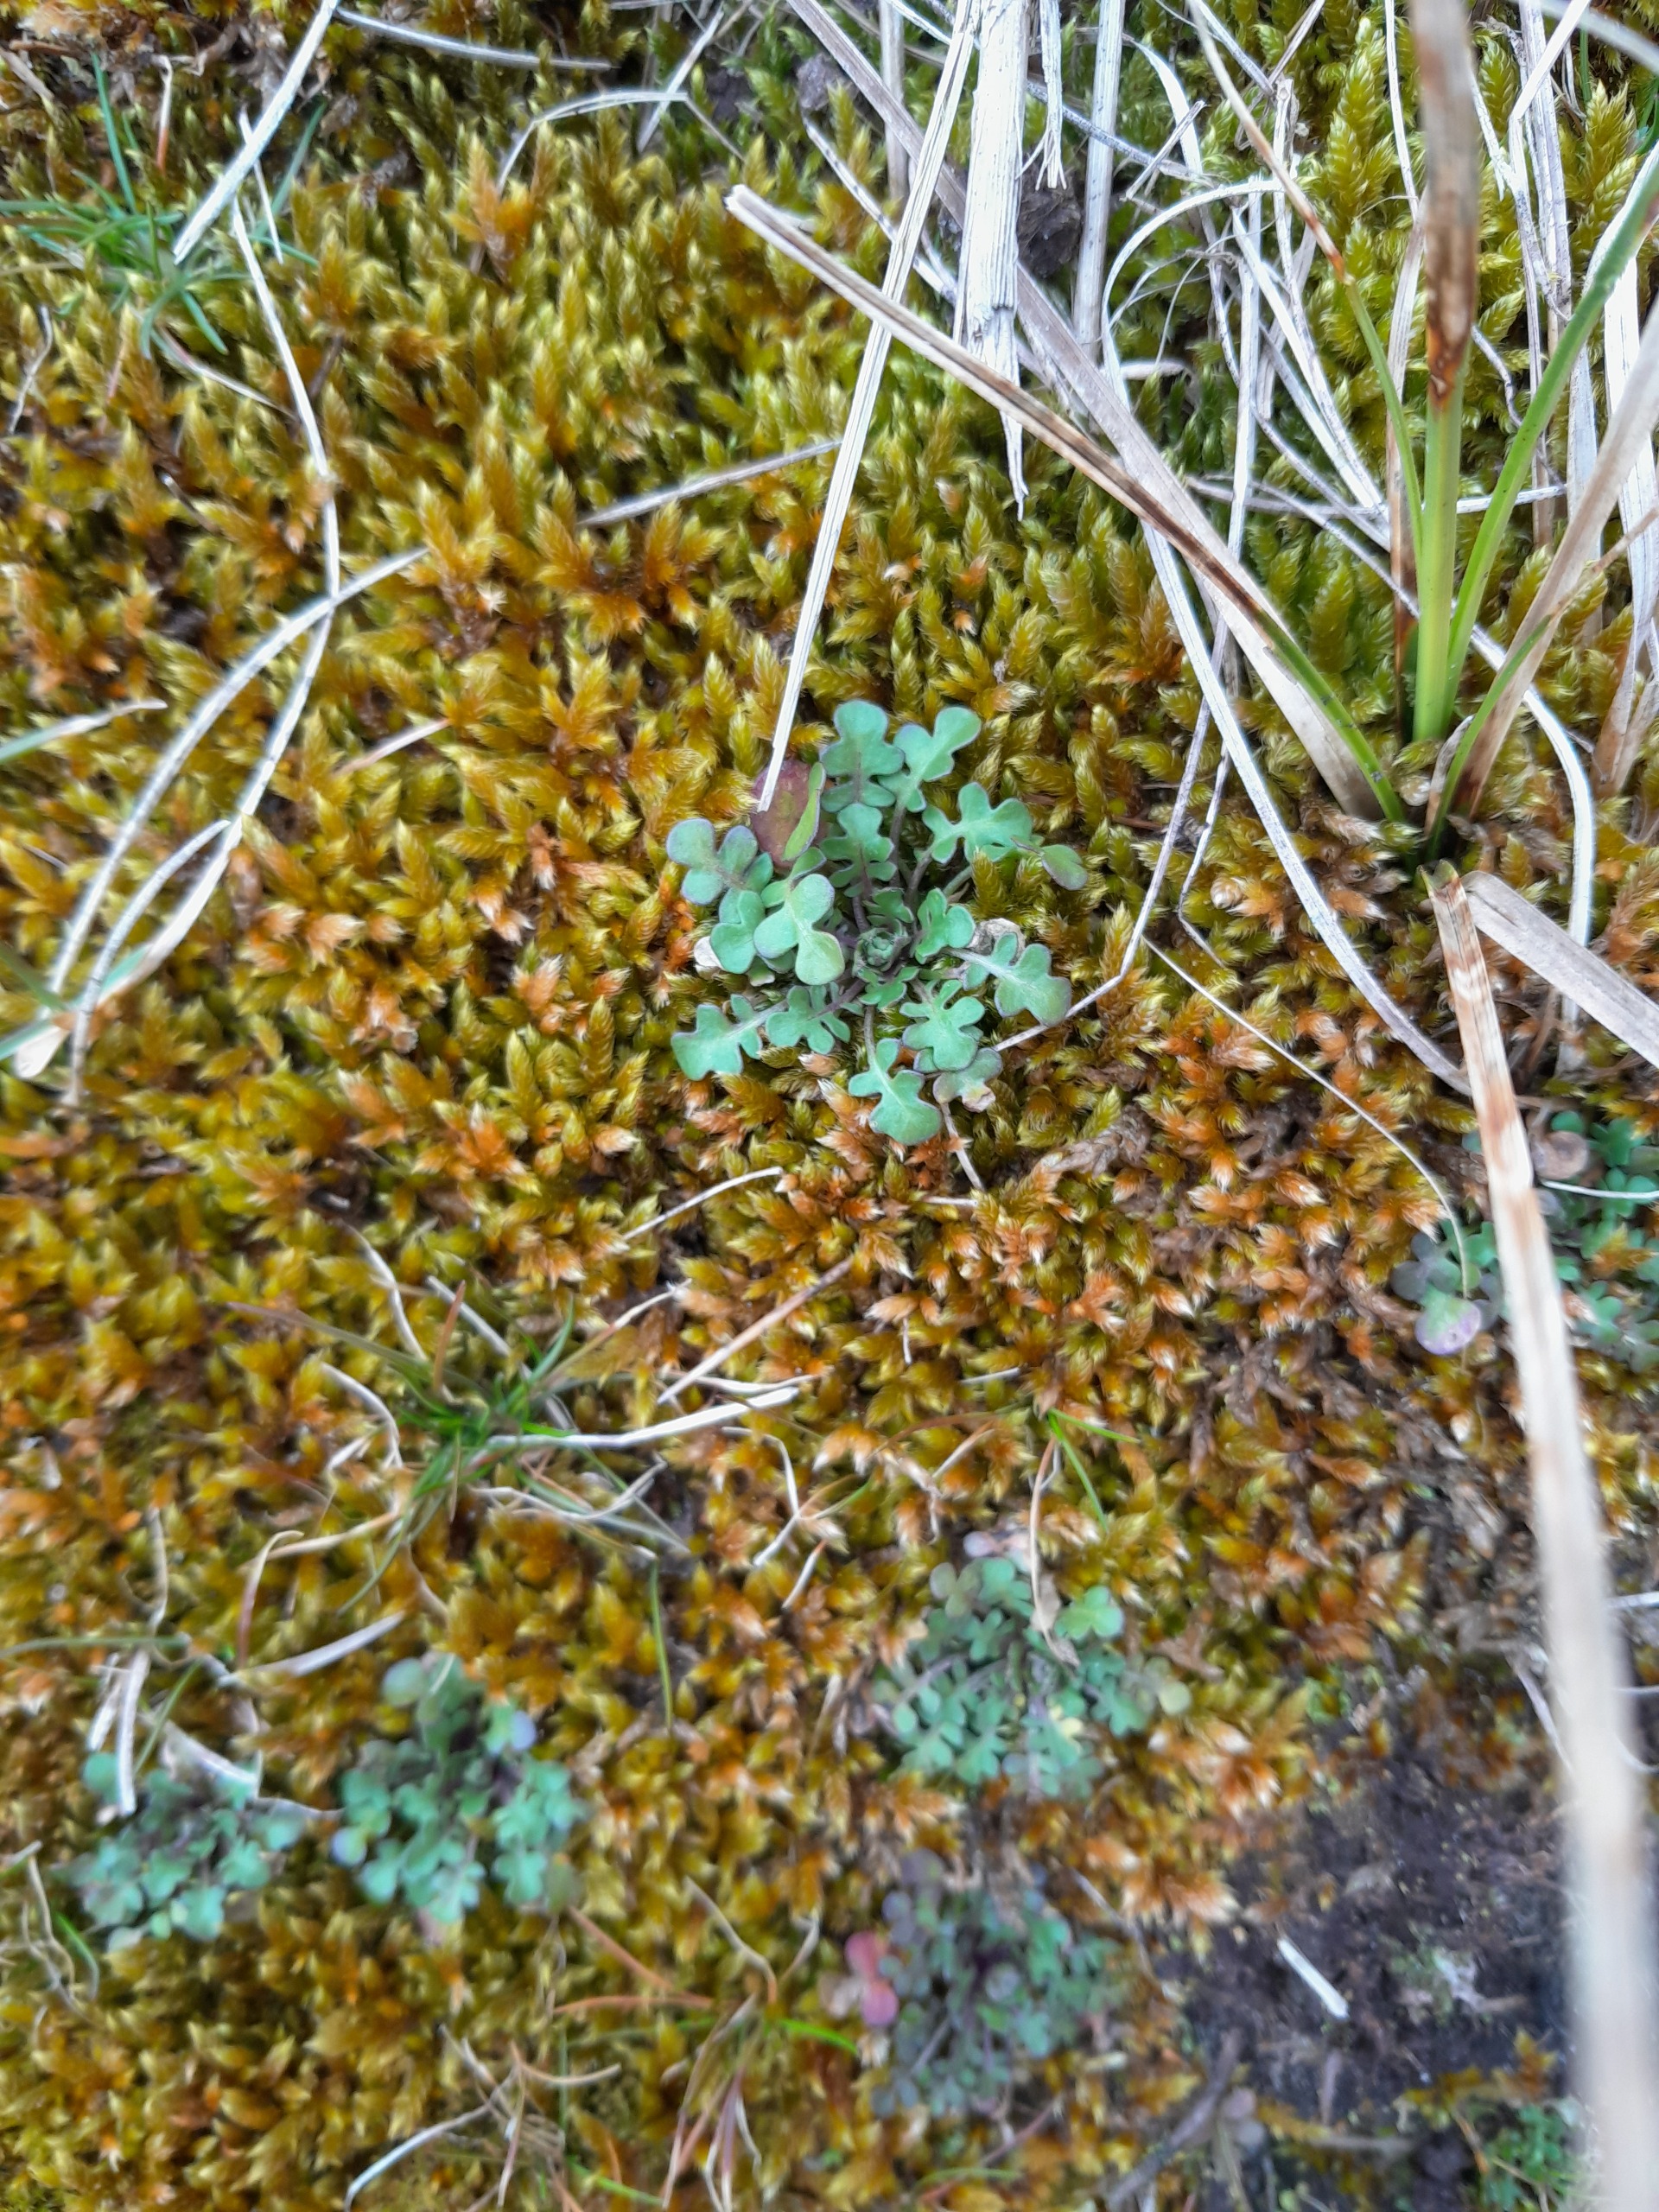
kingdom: Plantae
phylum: Tracheophyta
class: Magnoliopsida
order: Brassicales
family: Brassicaceae
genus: Teesdalia
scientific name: Teesdalia nudicaulis
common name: Flipkrave
